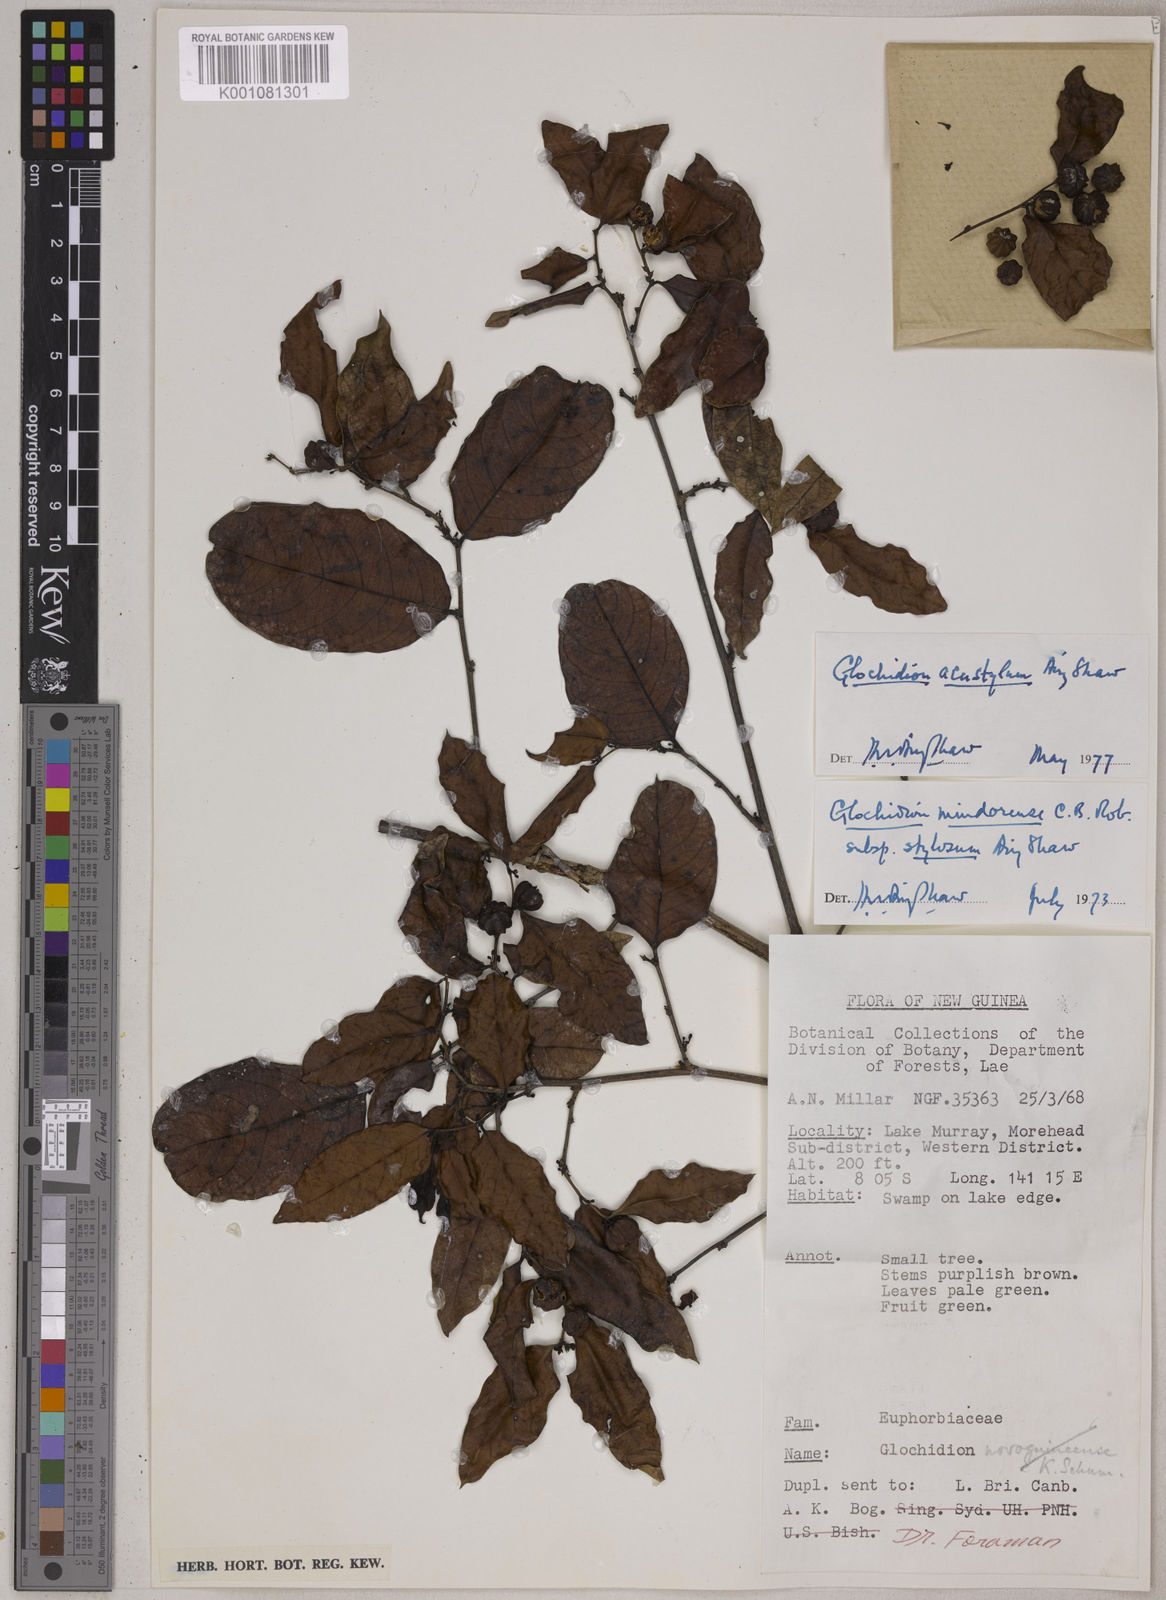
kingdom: Plantae
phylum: Tracheophyta
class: Magnoliopsida
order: Malpighiales
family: Phyllanthaceae
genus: Glochidion
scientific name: Glochidion acustylum
